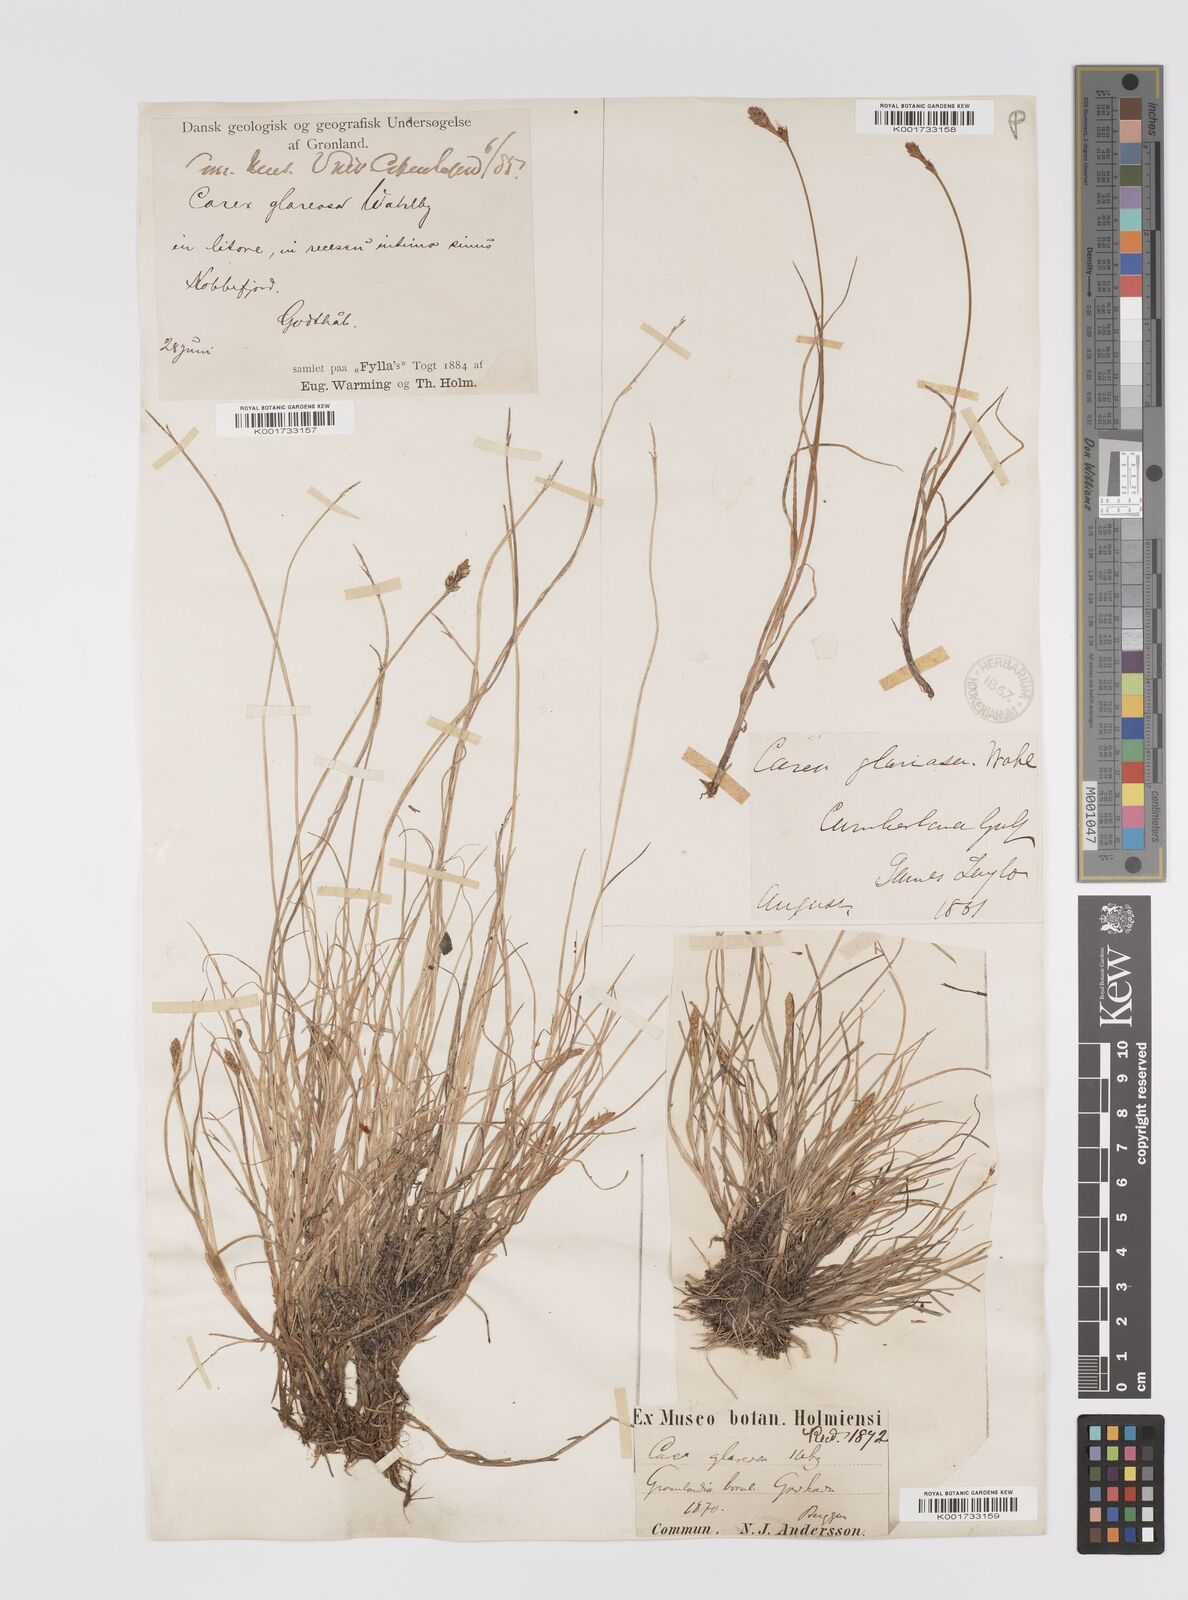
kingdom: Plantae
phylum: Tracheophyta
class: Liliopsida
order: Poales
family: Cyperaceae
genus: Carex
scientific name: Carex glareosa
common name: Clustered sedge
